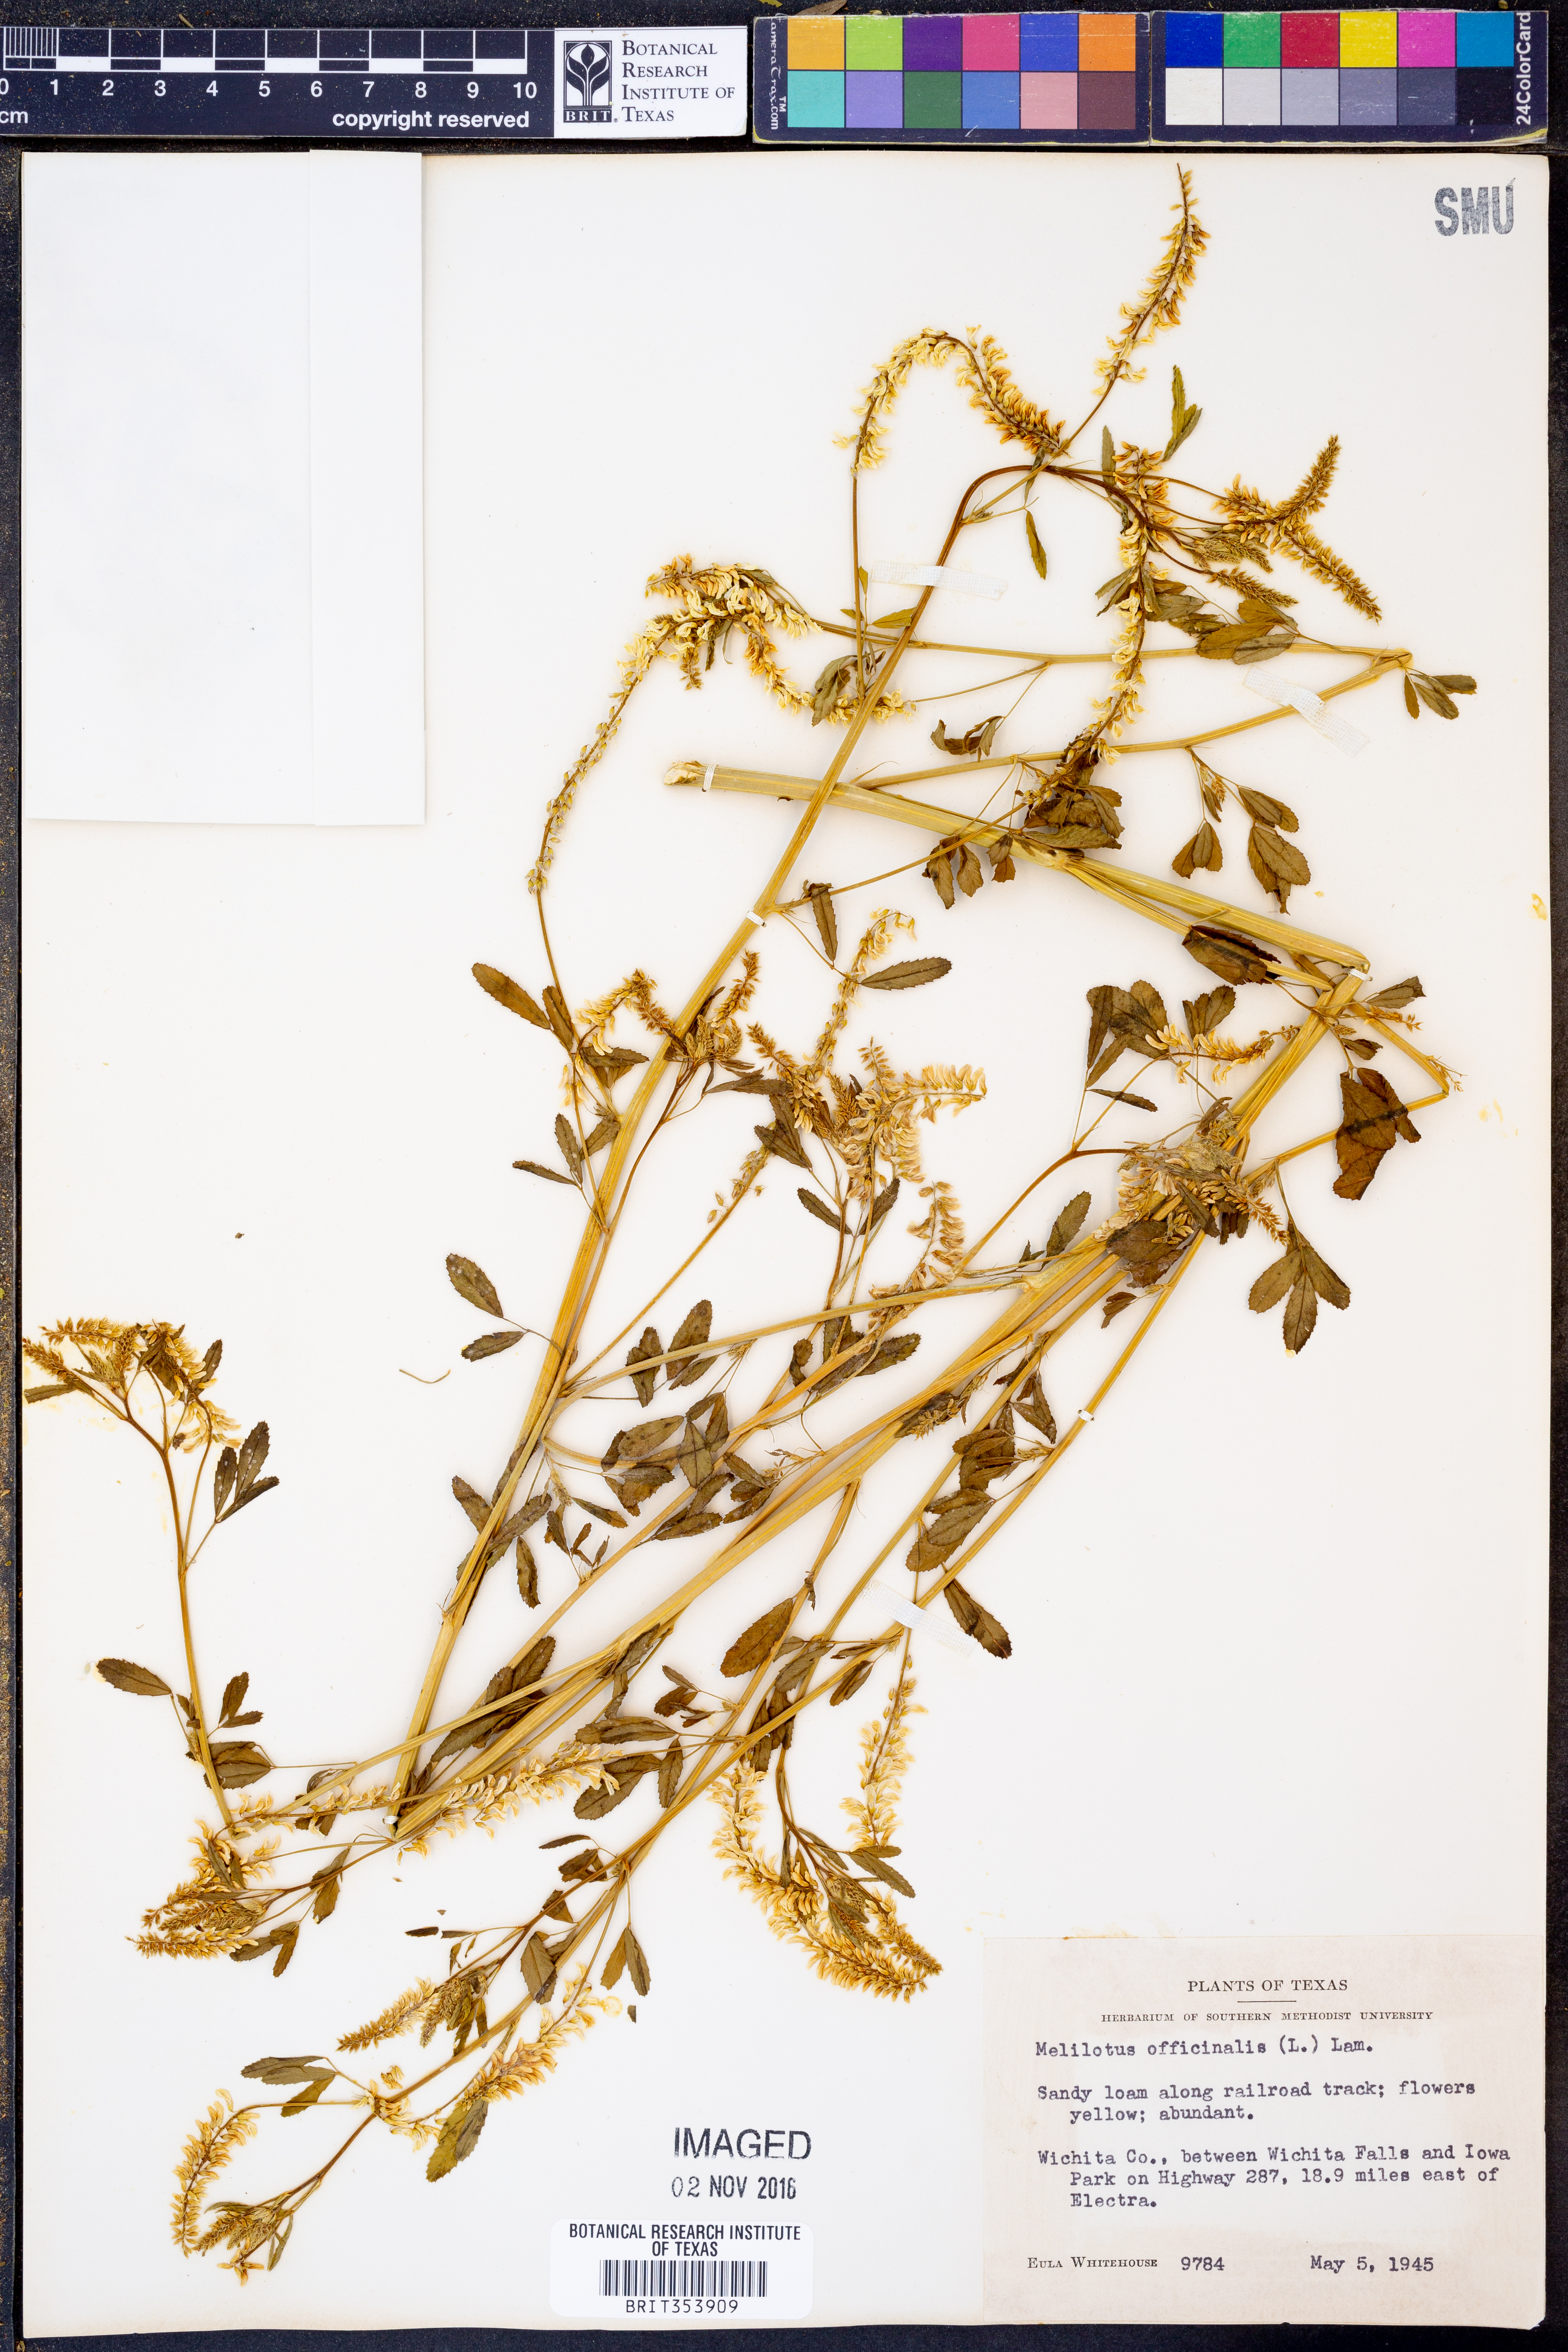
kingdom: Plantae
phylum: Tracheophyta
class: Magnoliopsida
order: Fabales
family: Fabaceae
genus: Melilotus
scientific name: Melilotus officinalis
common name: Sweetclover
